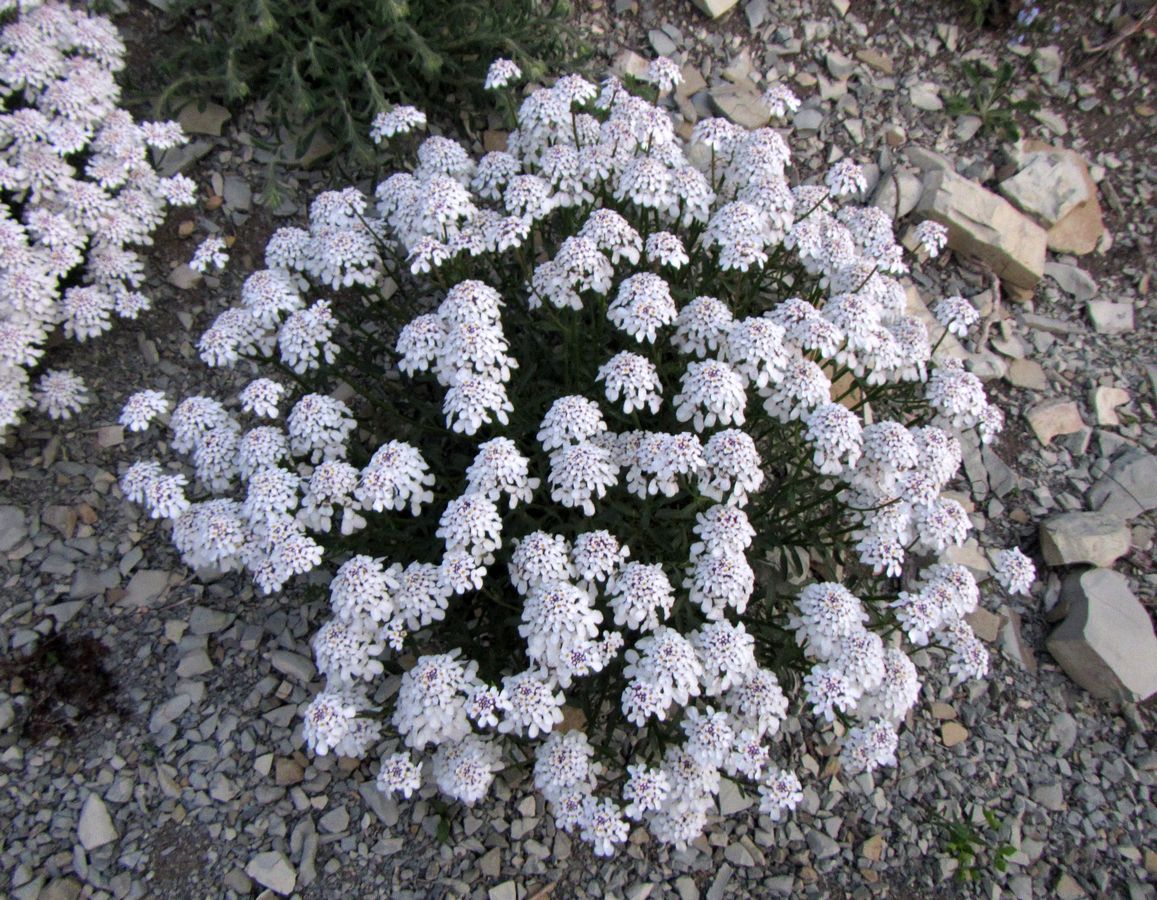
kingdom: Plantae
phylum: Tracheophyta
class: Magnoliopsida
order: Brassicales
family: Brassicaceae
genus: Iberis
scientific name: Iberis
